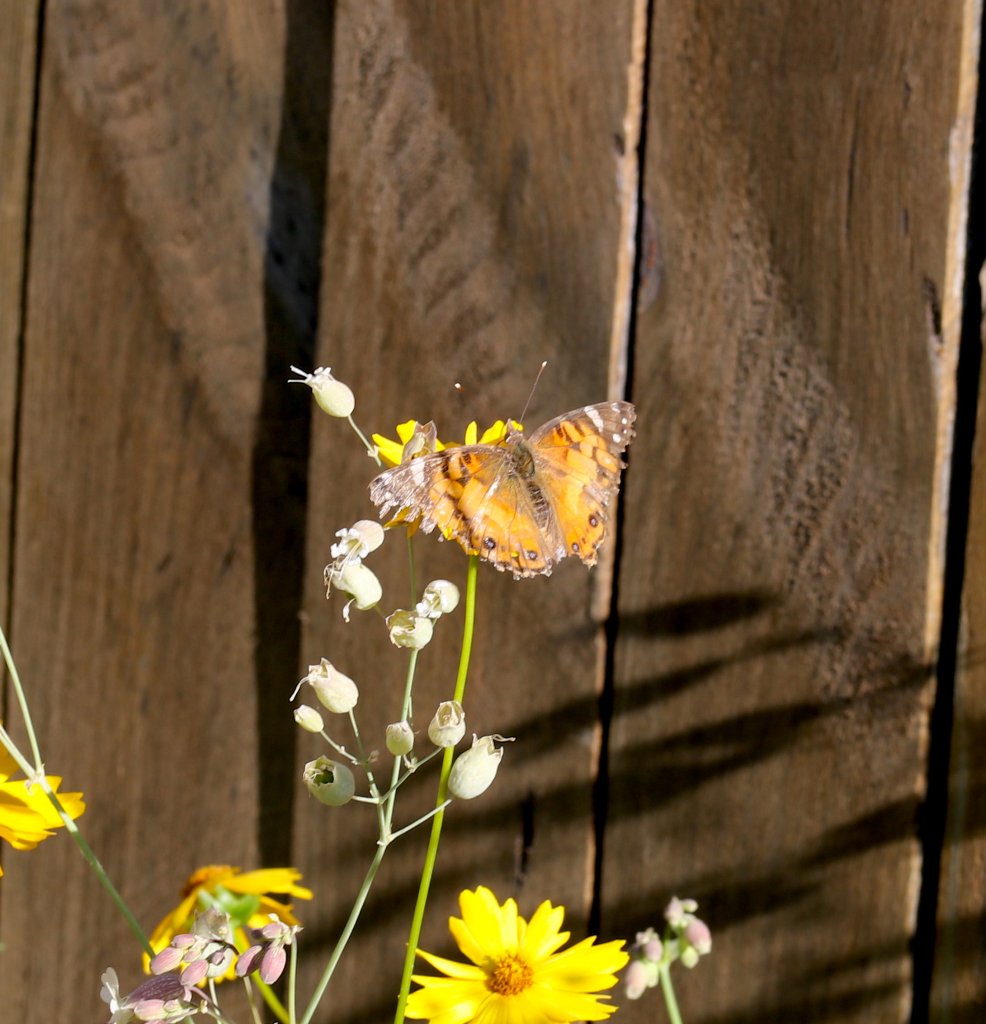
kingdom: Animalia
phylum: Arthropoda
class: Insecta
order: Lepidoptera
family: Nymphalidae
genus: Vanessa
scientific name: Vanessa virginiensis
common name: American Lady
